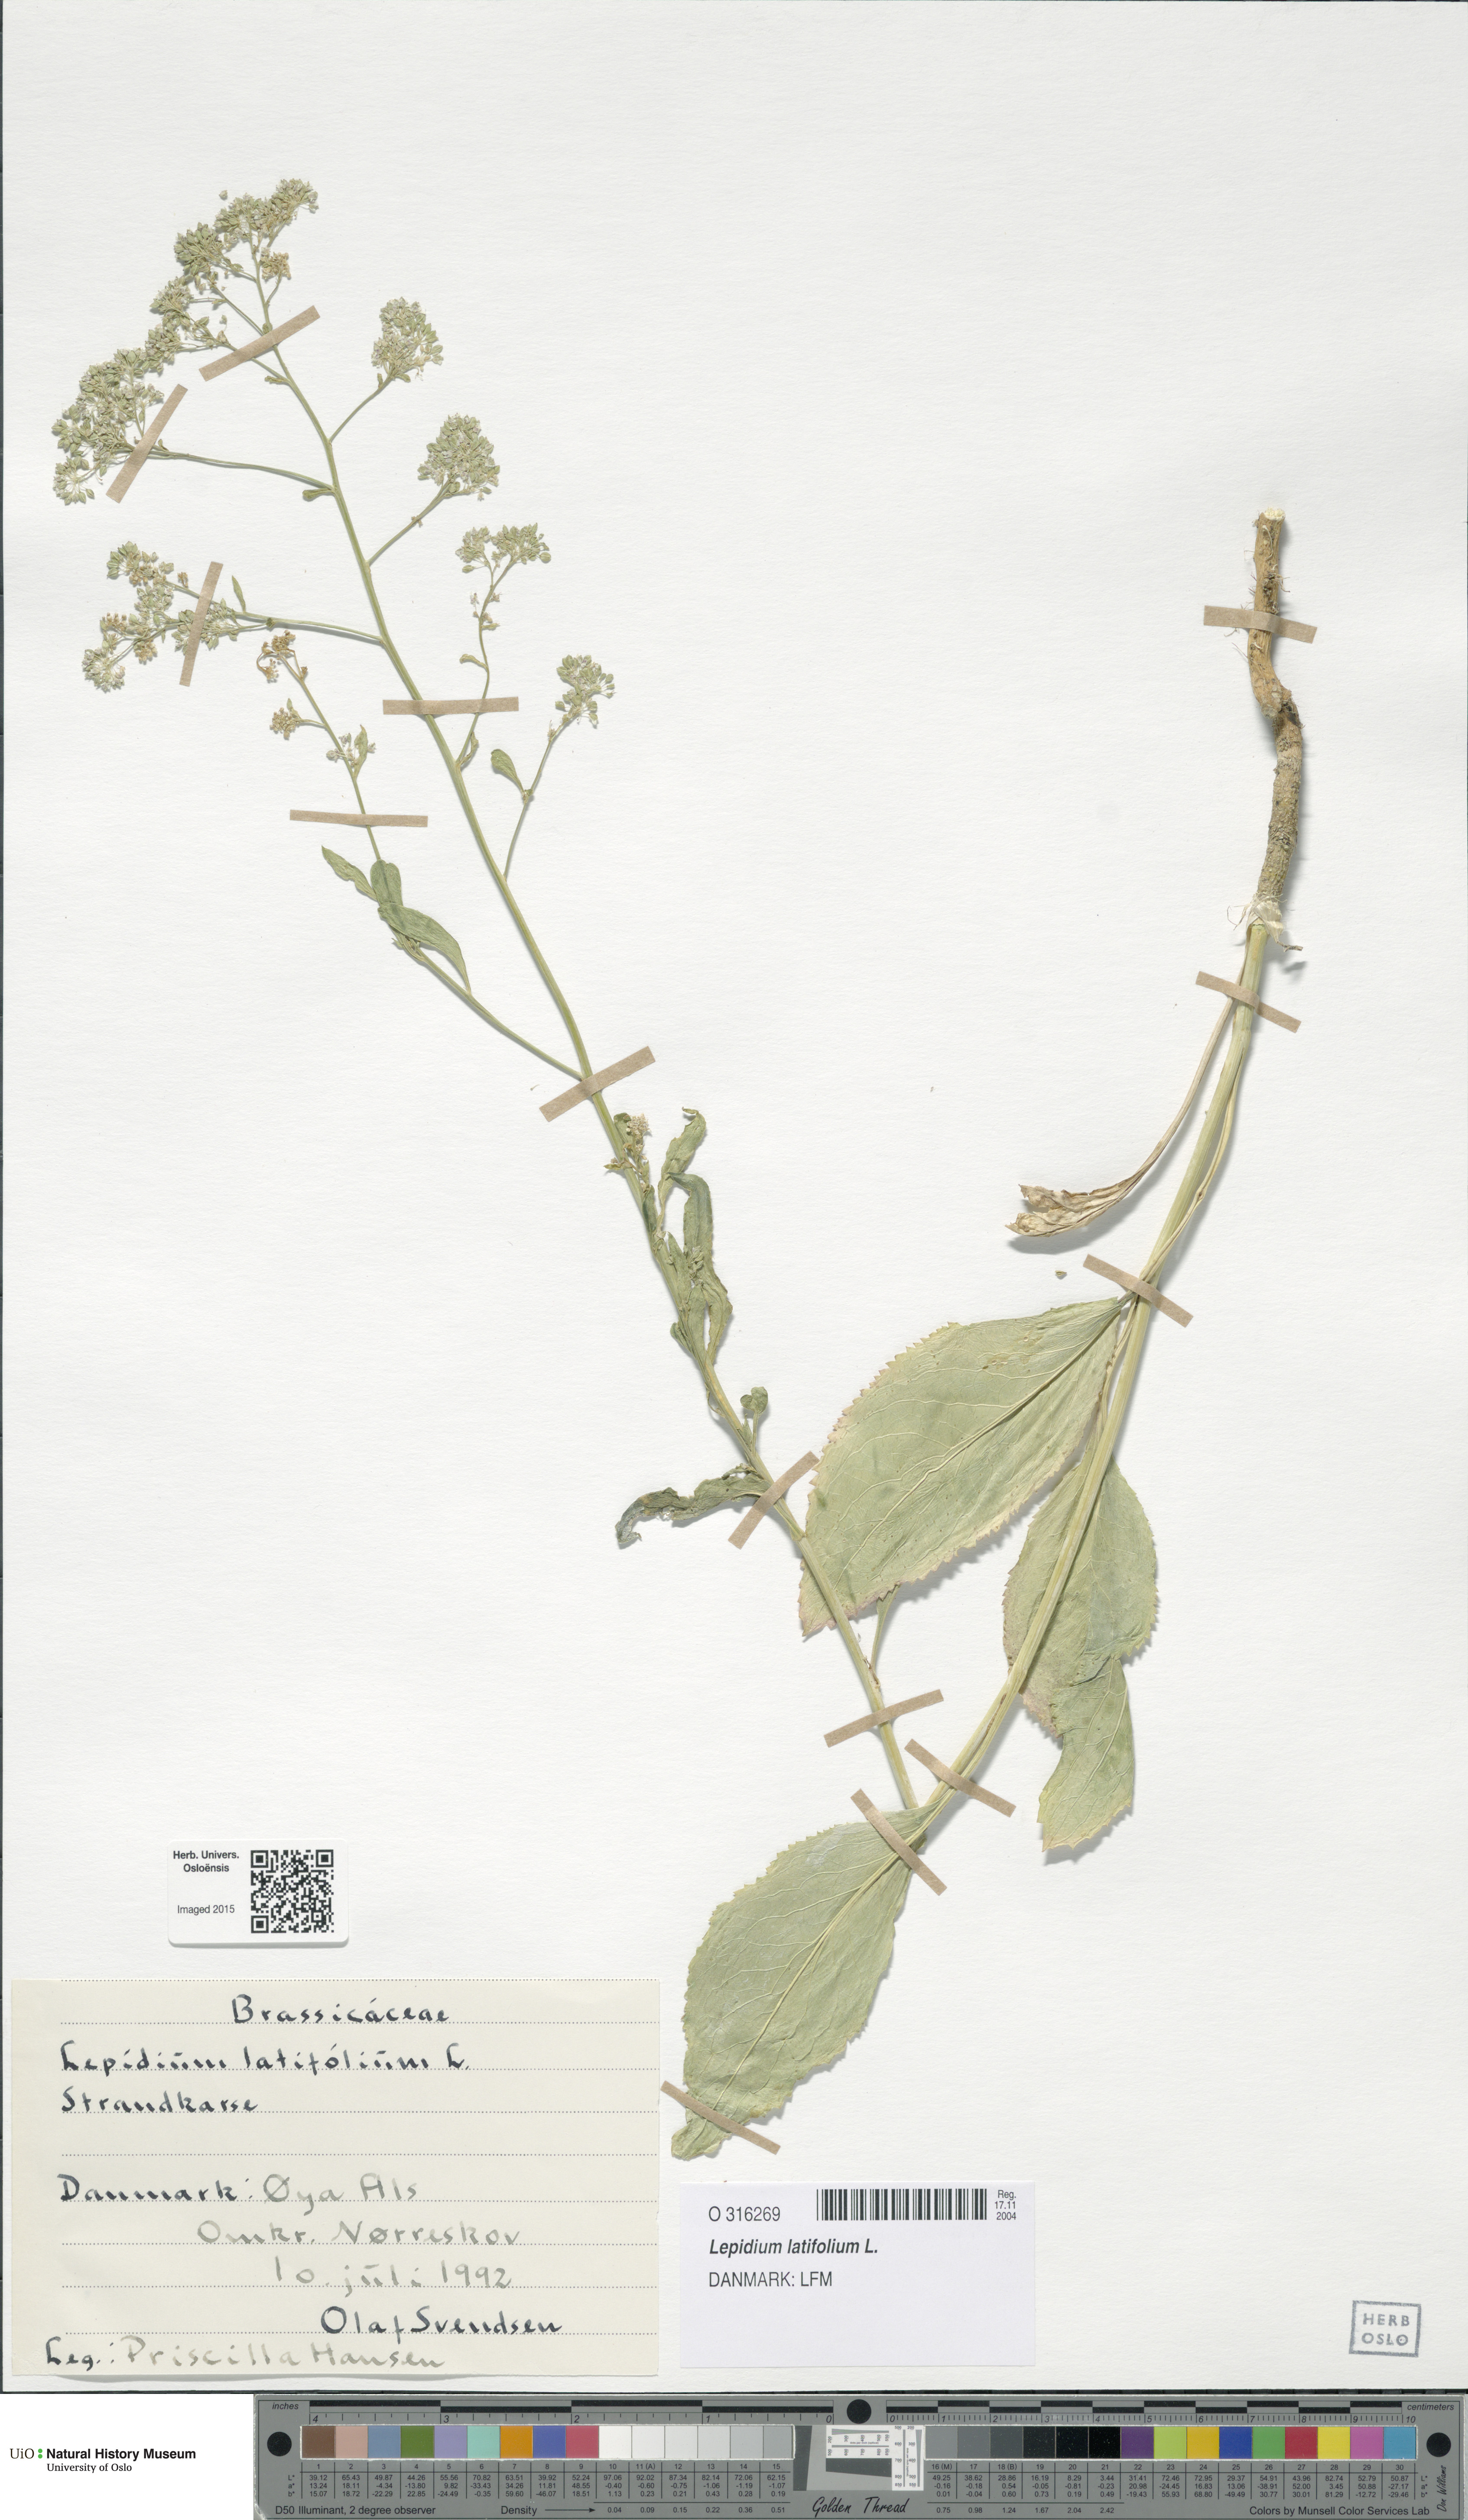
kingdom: Plantae
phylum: Tracheophyta
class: Magnoliopsida
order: Brassicales
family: Brassicaceae
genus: Lepidium
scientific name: Lepidium latifolium
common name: Dittander
